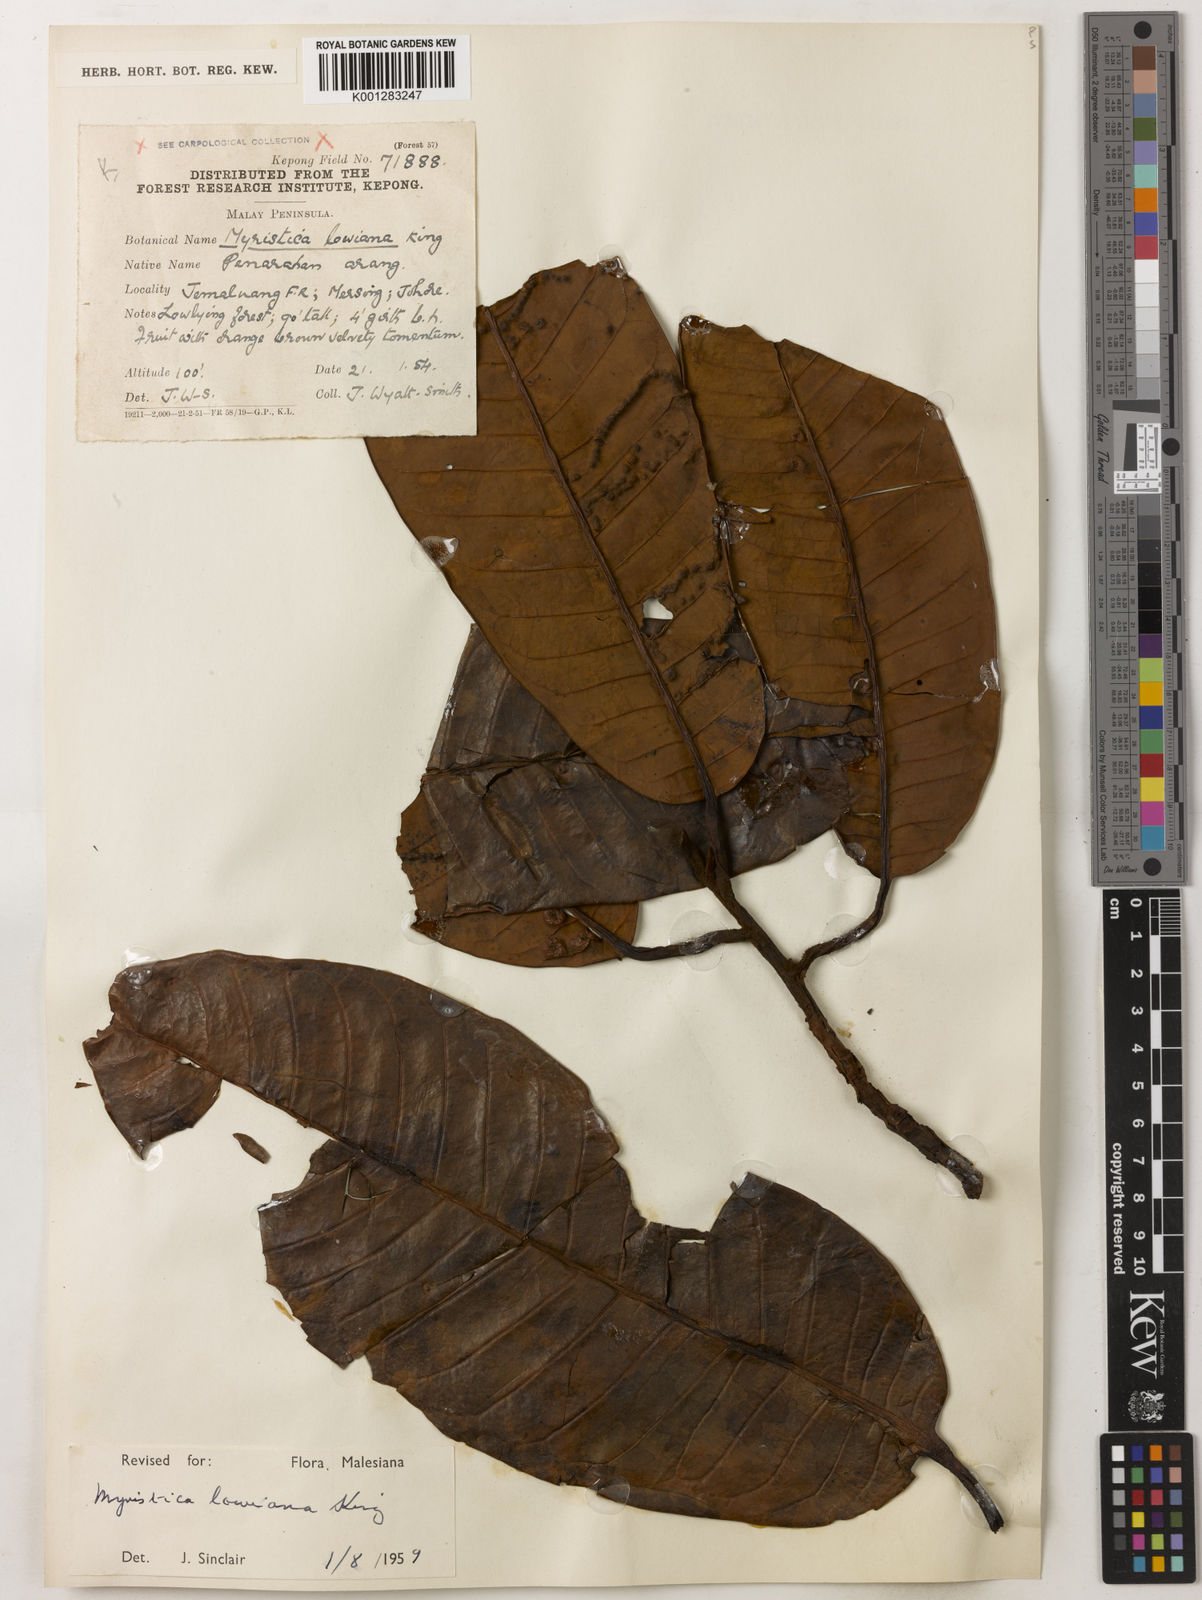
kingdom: Plantae
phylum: Tracheophyta
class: Magnoliopsida
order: Magnoliales
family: Myristicaceae
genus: Myristica
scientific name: Myristica lowiana
